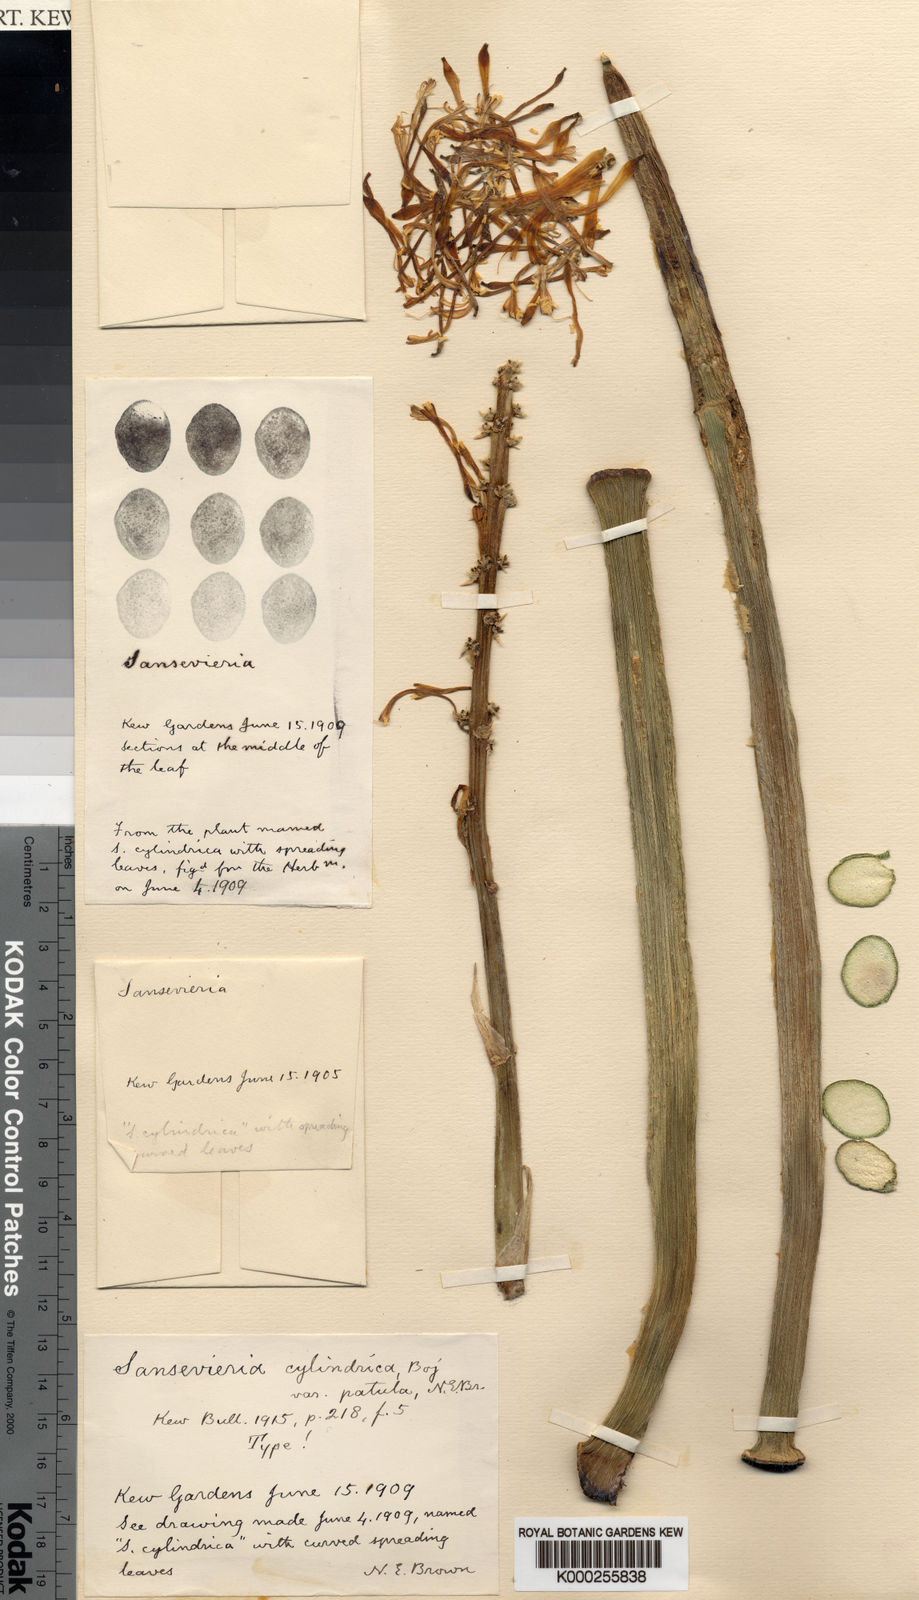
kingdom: Plantae
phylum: Tracheophyta
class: Liliopsida
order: Asparagales
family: Asparagaceae
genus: Dracaena
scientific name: Dracaena angolensis
